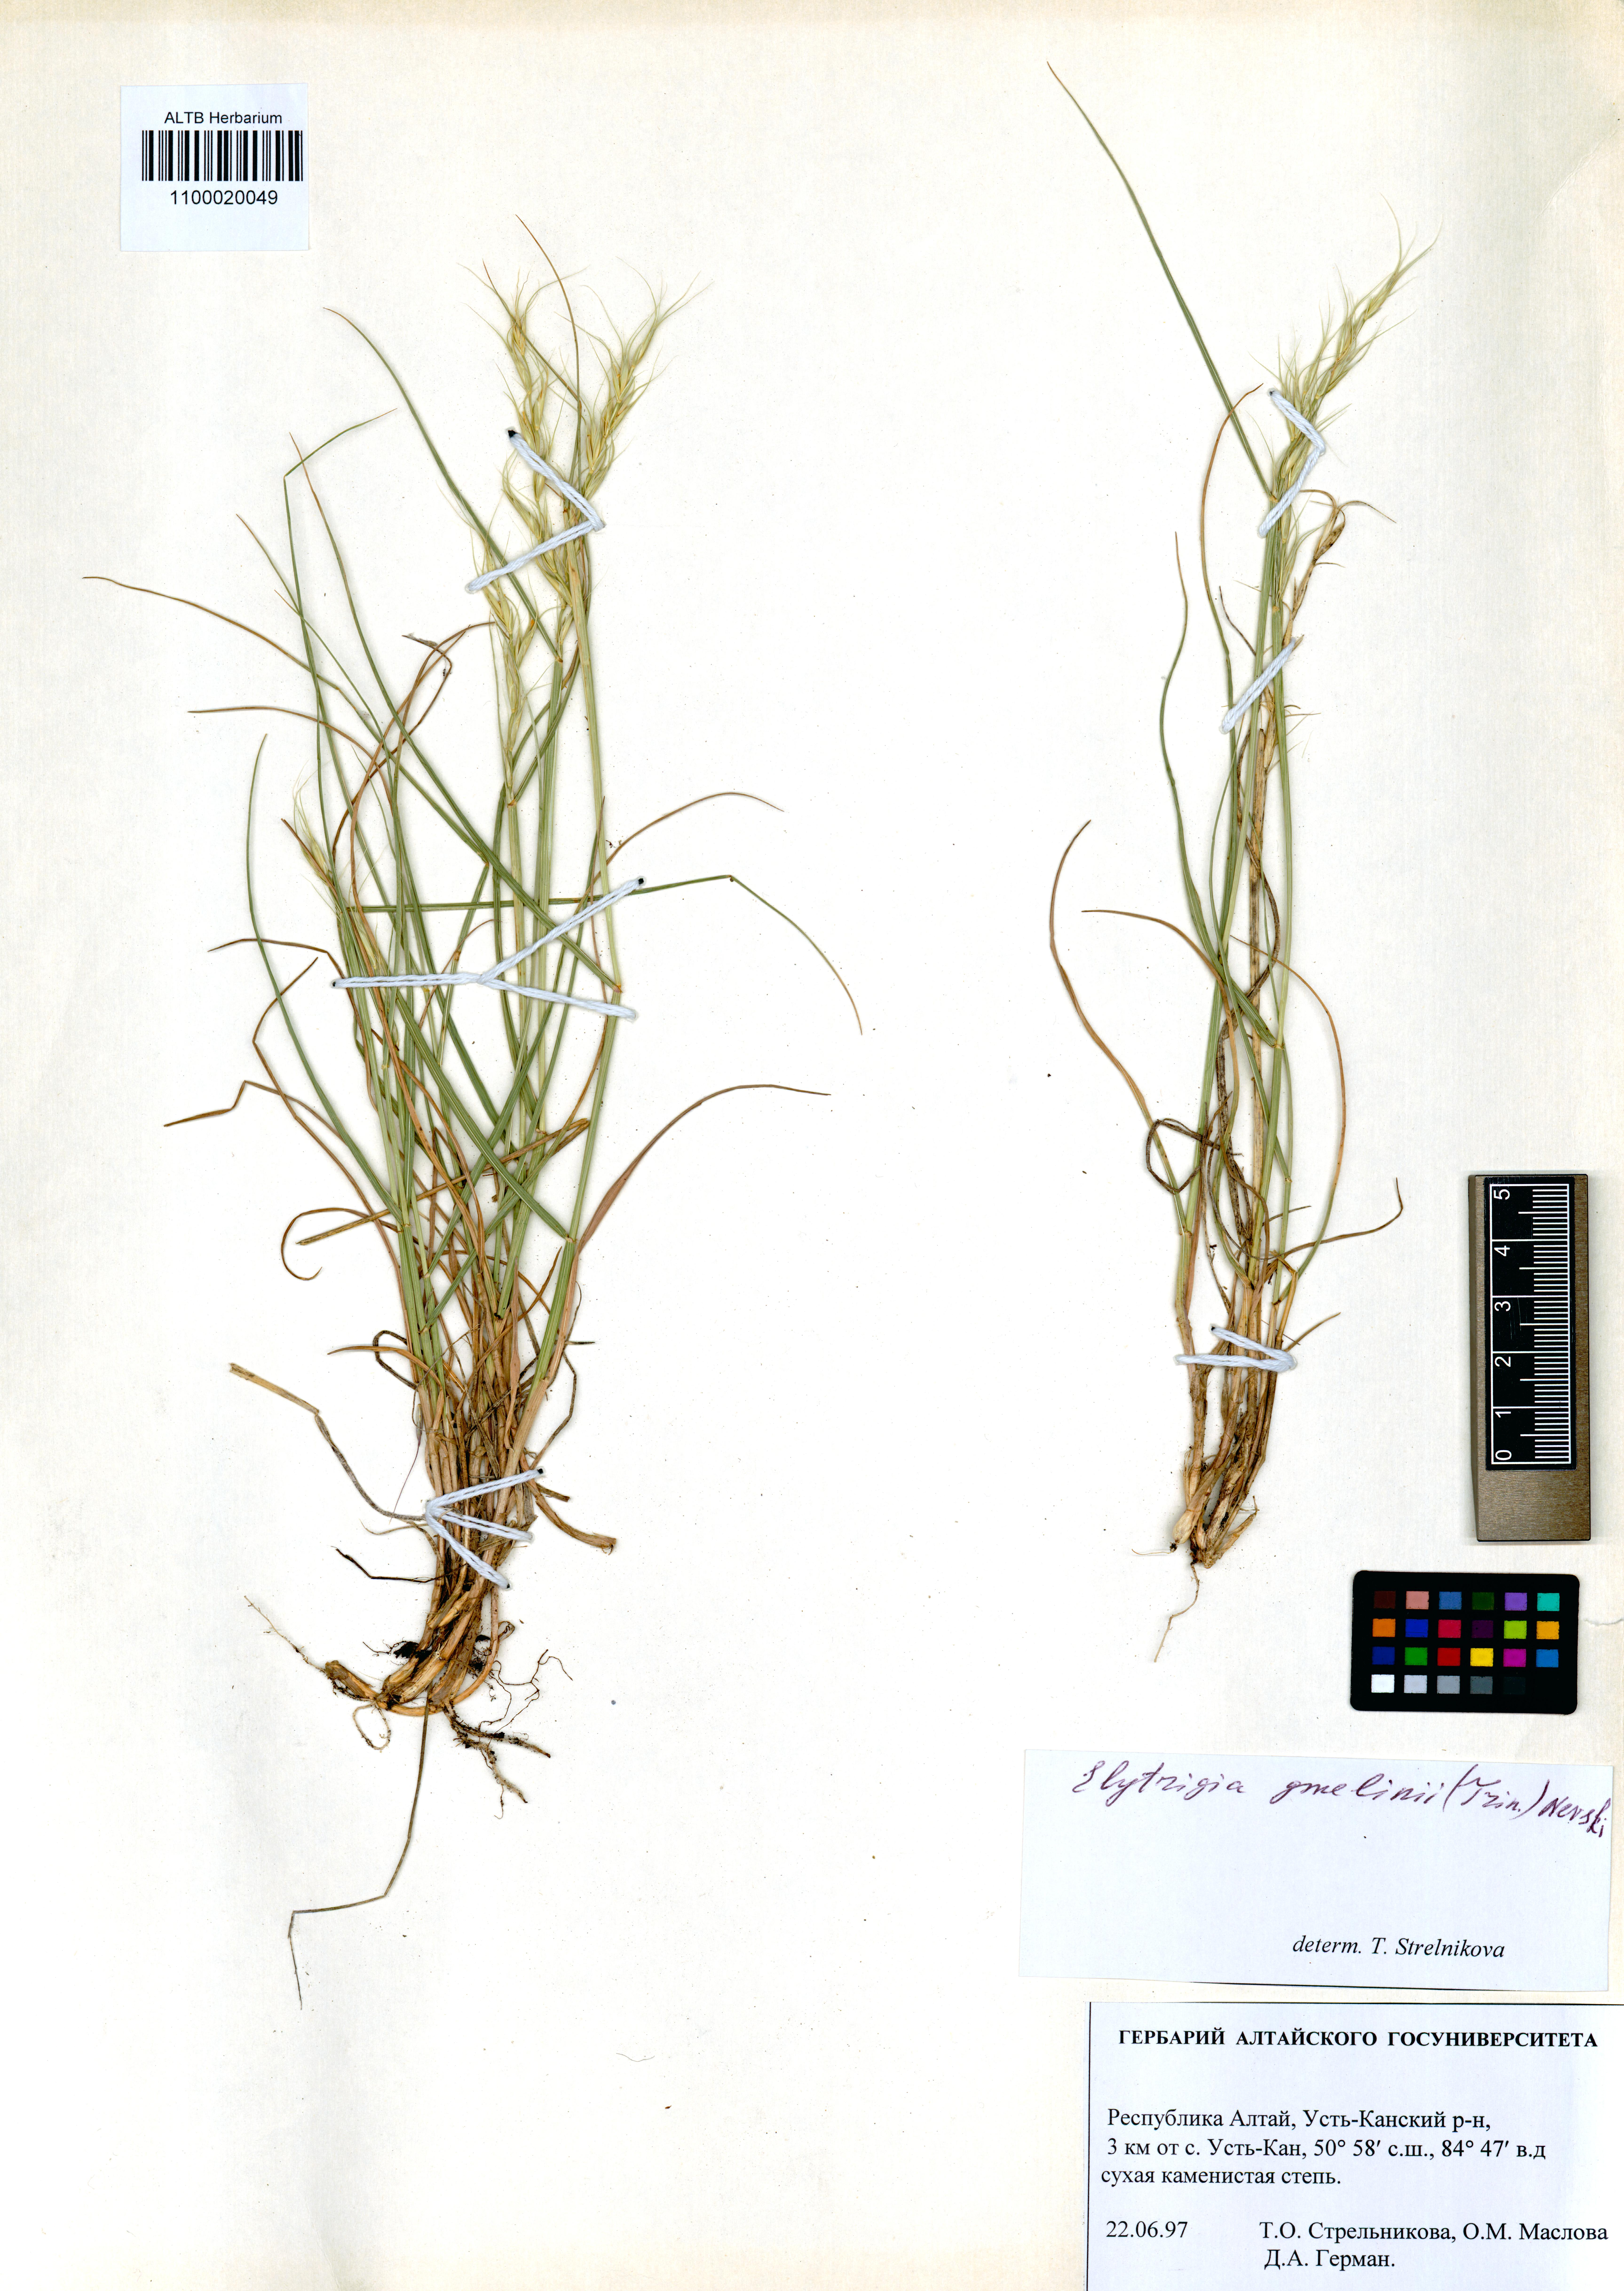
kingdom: Plantae
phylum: Tracheophyta
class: Liliopsida
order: Poales
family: Poaceae
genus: Pseudoroegneria
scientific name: Pseudoroegneria reflexiaristata
